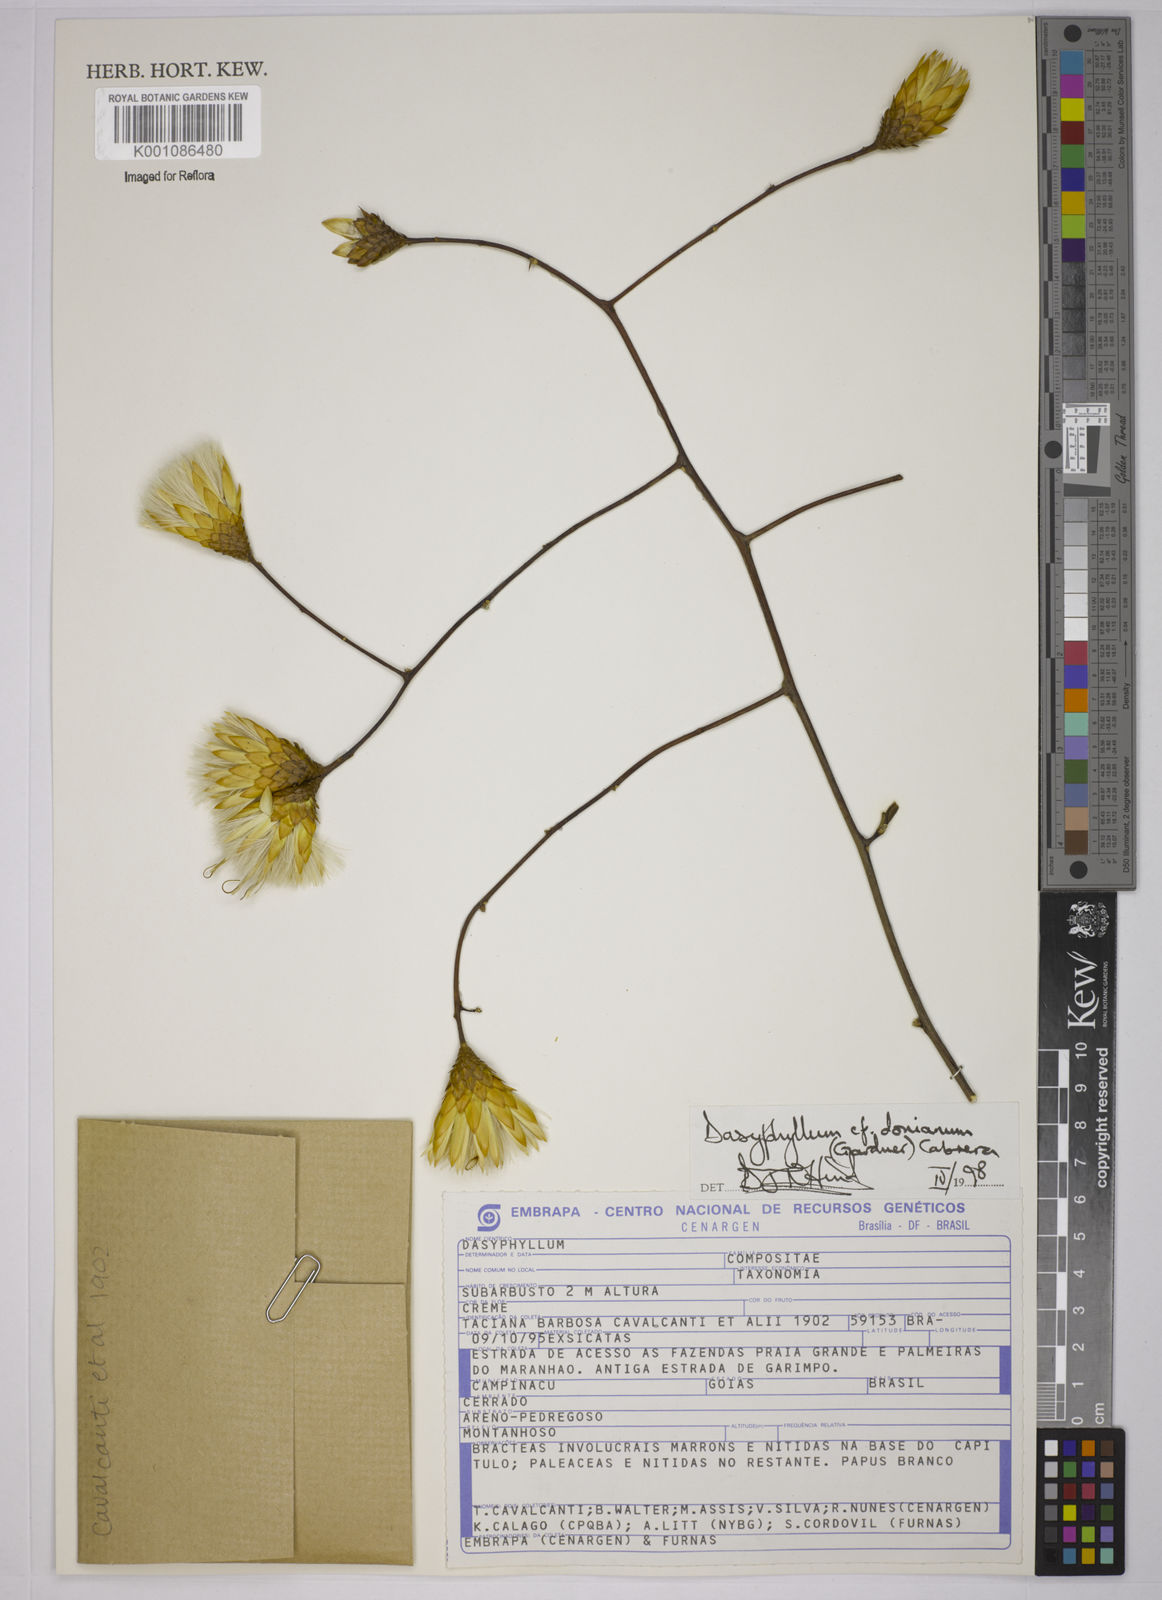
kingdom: Plantae
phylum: Tracheophyta
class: Magnoliopsida
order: Asterales
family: Asteraceae
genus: Dasyphyllum
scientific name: Dasyphyllum donianum
